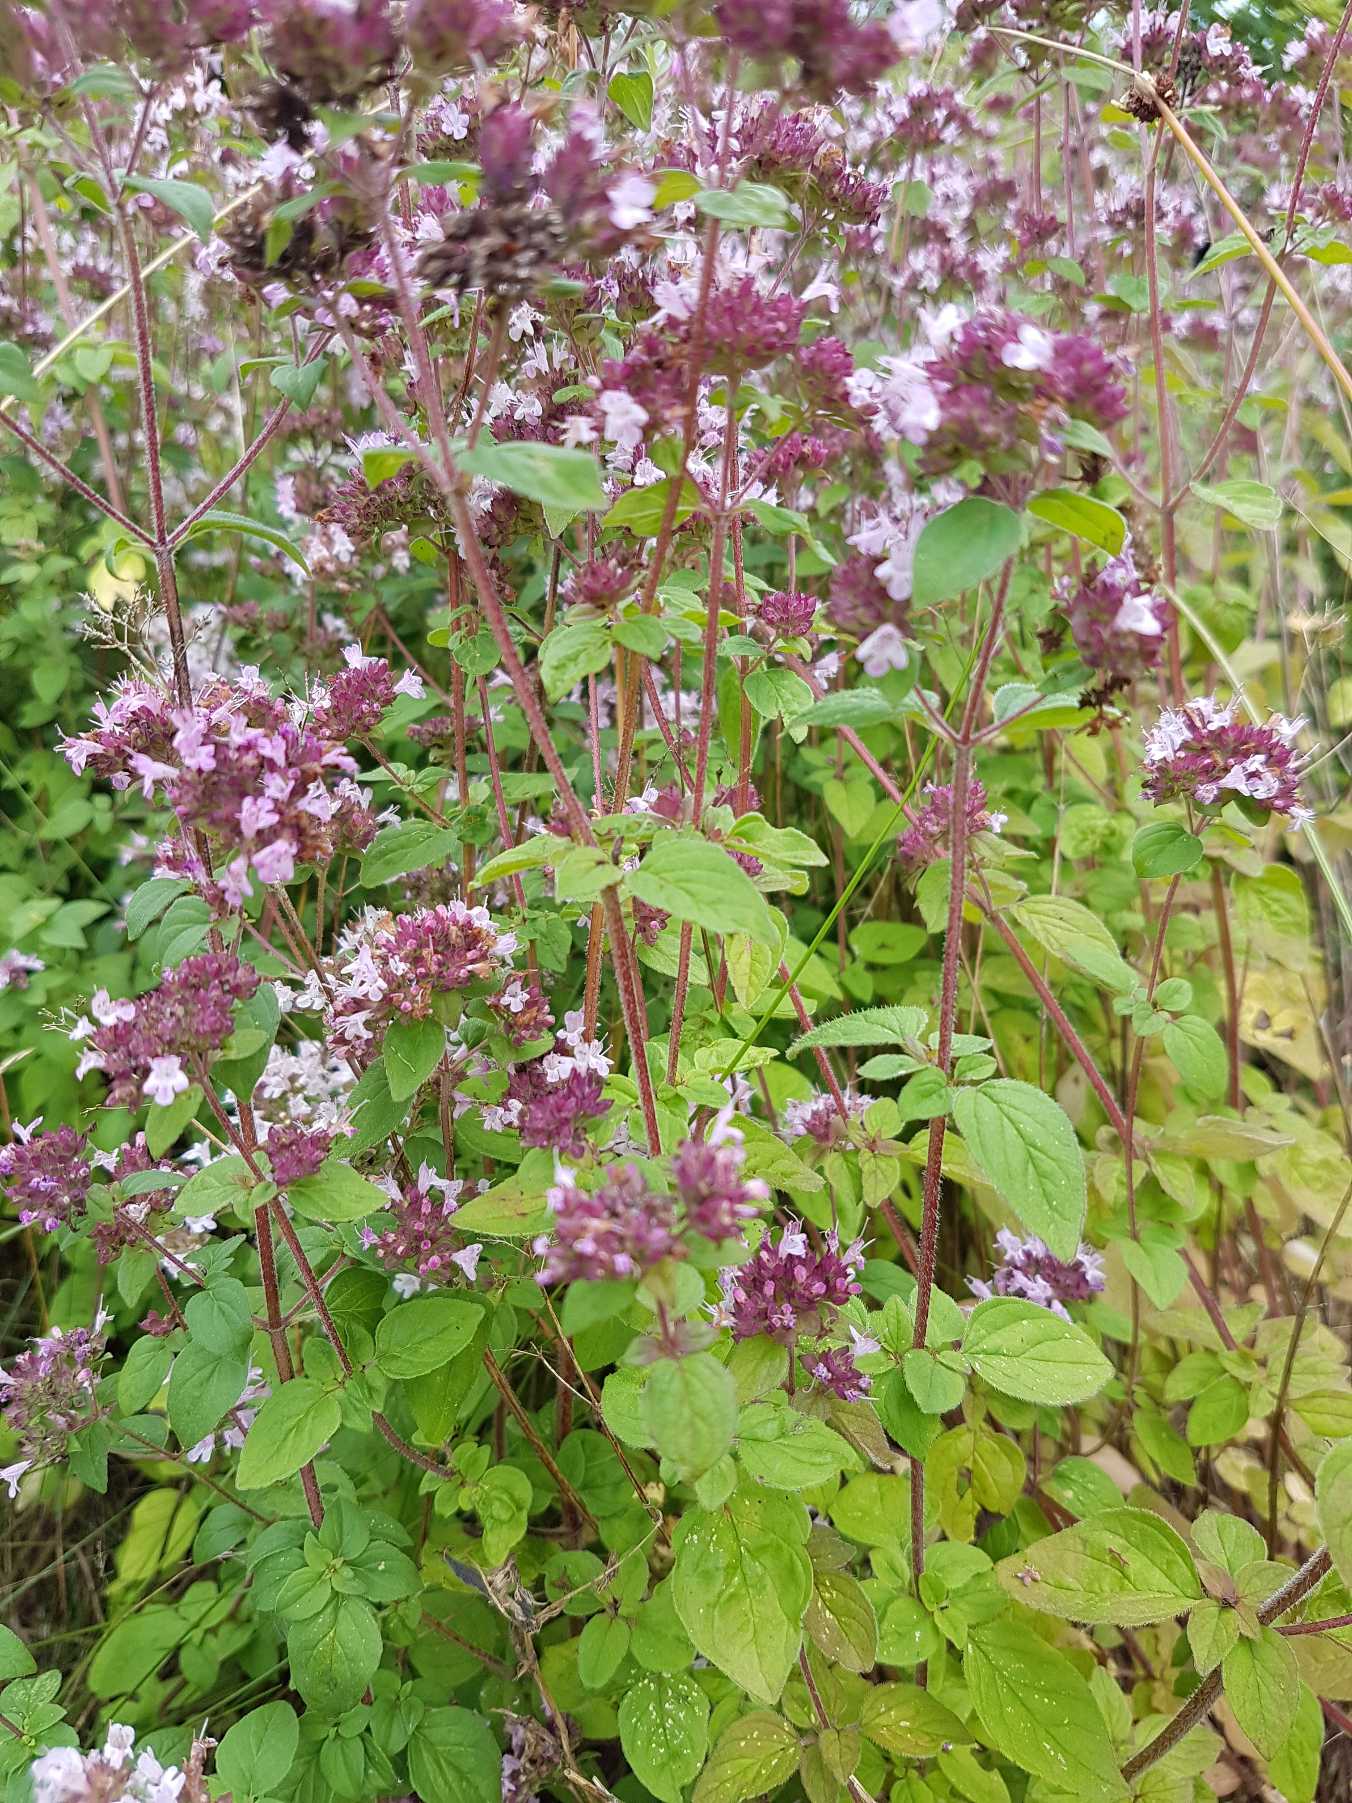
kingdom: Plantae
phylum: Tracheophyta
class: Magnoliopsida
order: Lamiales
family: Lamiaceae
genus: Origanum
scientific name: Origanum vulgare
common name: Merian
